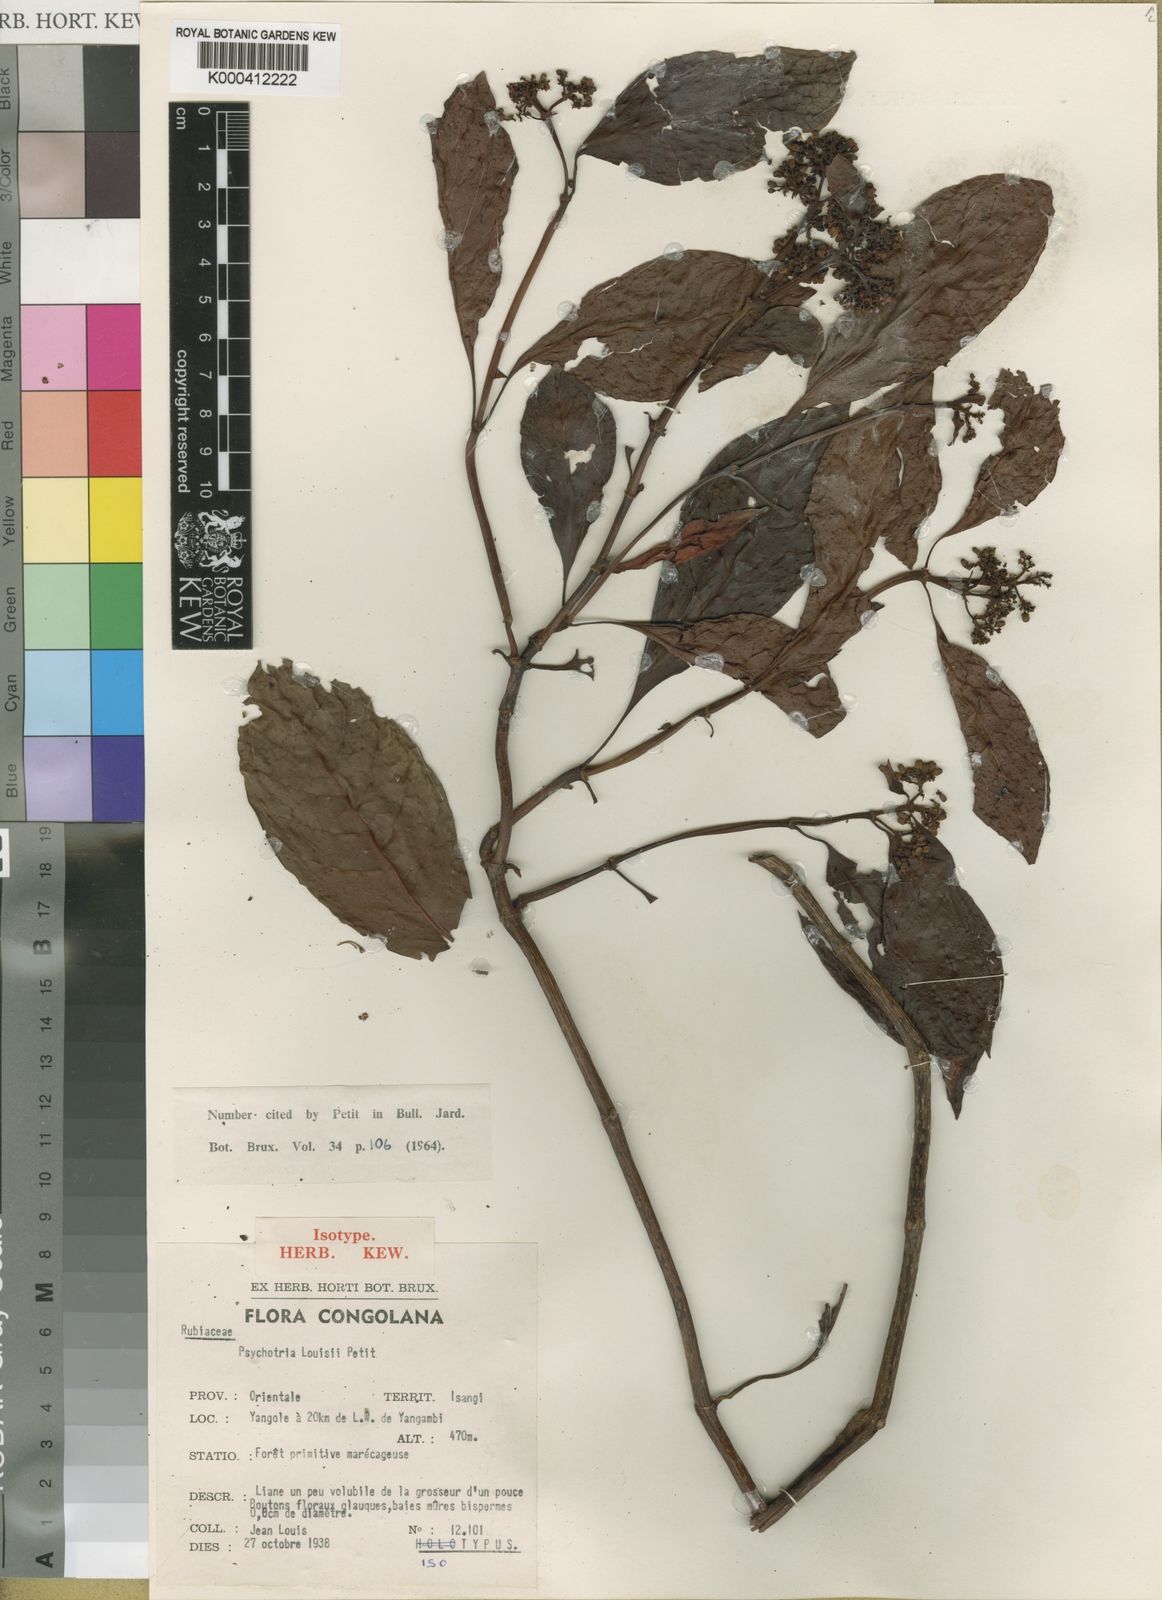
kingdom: Plantae
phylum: Tracheophyta
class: Magnoliopsida
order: Gentianales
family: Rubiaceae
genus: Psychotria
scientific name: Psychotria louisii
